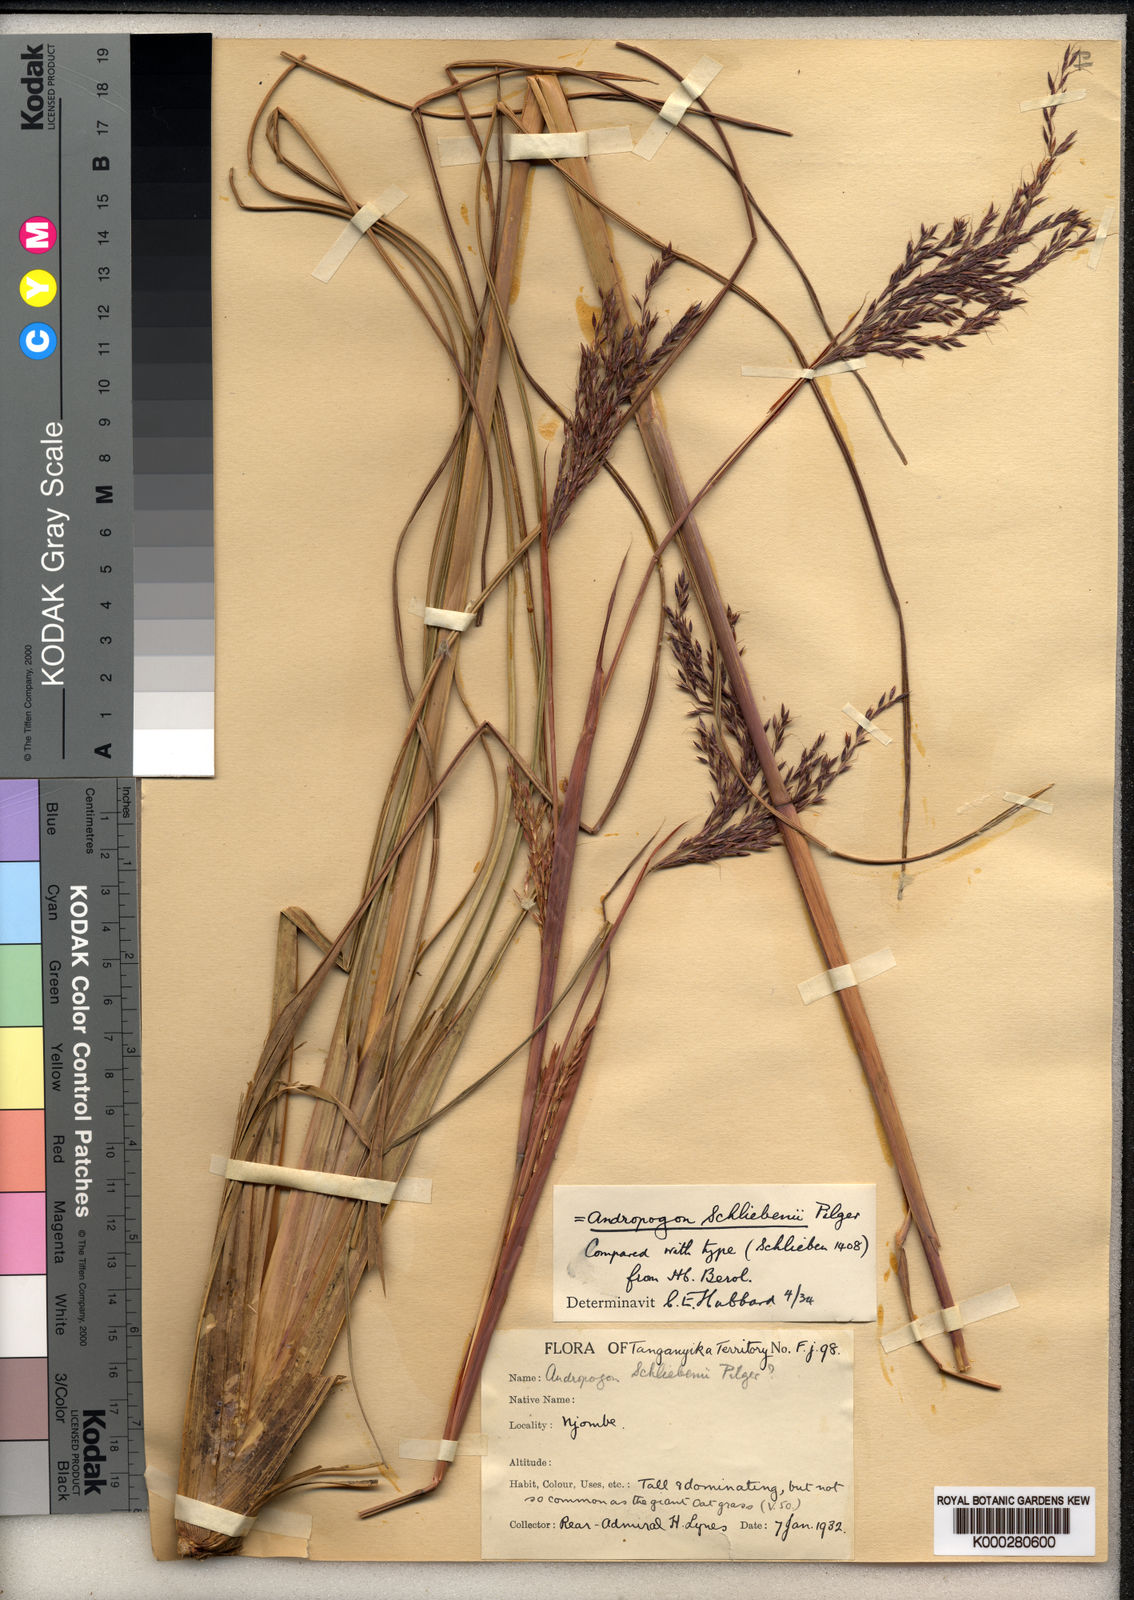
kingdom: Plantae
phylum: Tracheophyta
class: Liliopsida
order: Poales
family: Poaceae
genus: Andropogon
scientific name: Andropogon tenuiberbis
